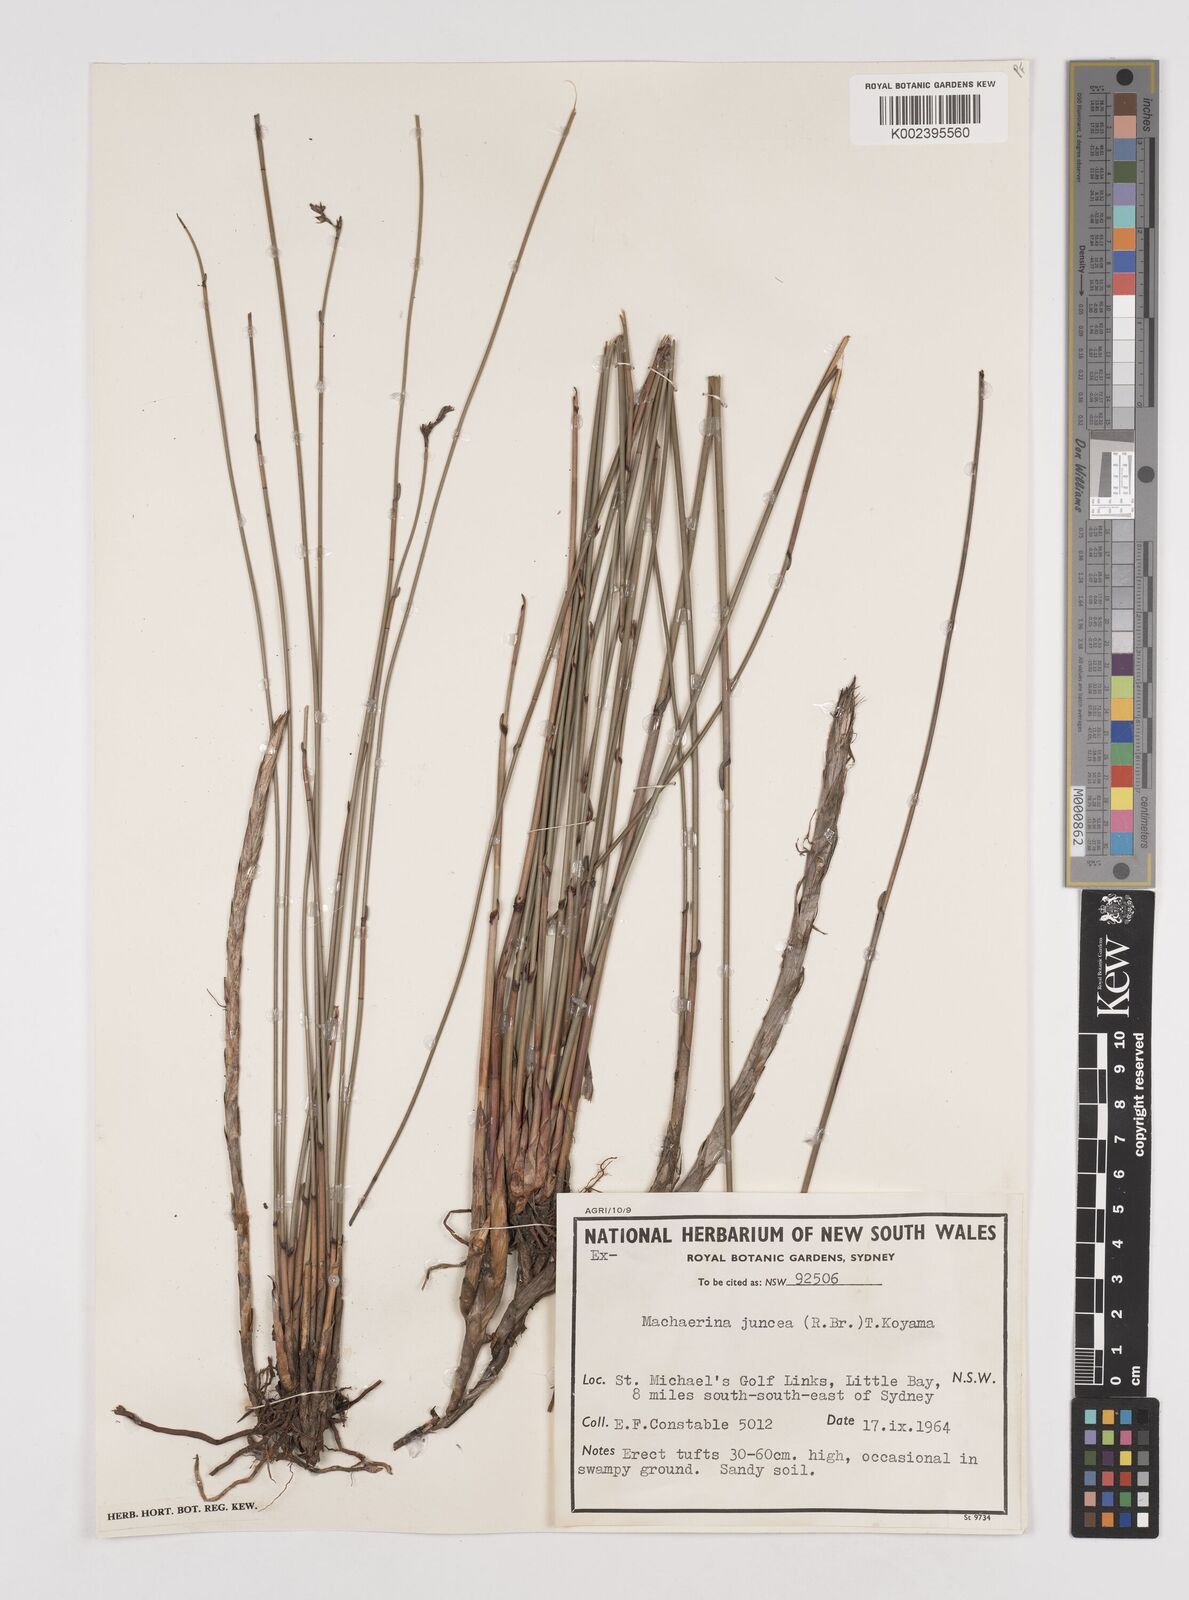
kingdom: Plantae
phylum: Tracheophyta
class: Liliopsida
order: Poales
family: Cyperaceae
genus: Machaerina
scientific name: Machaerina juncea
